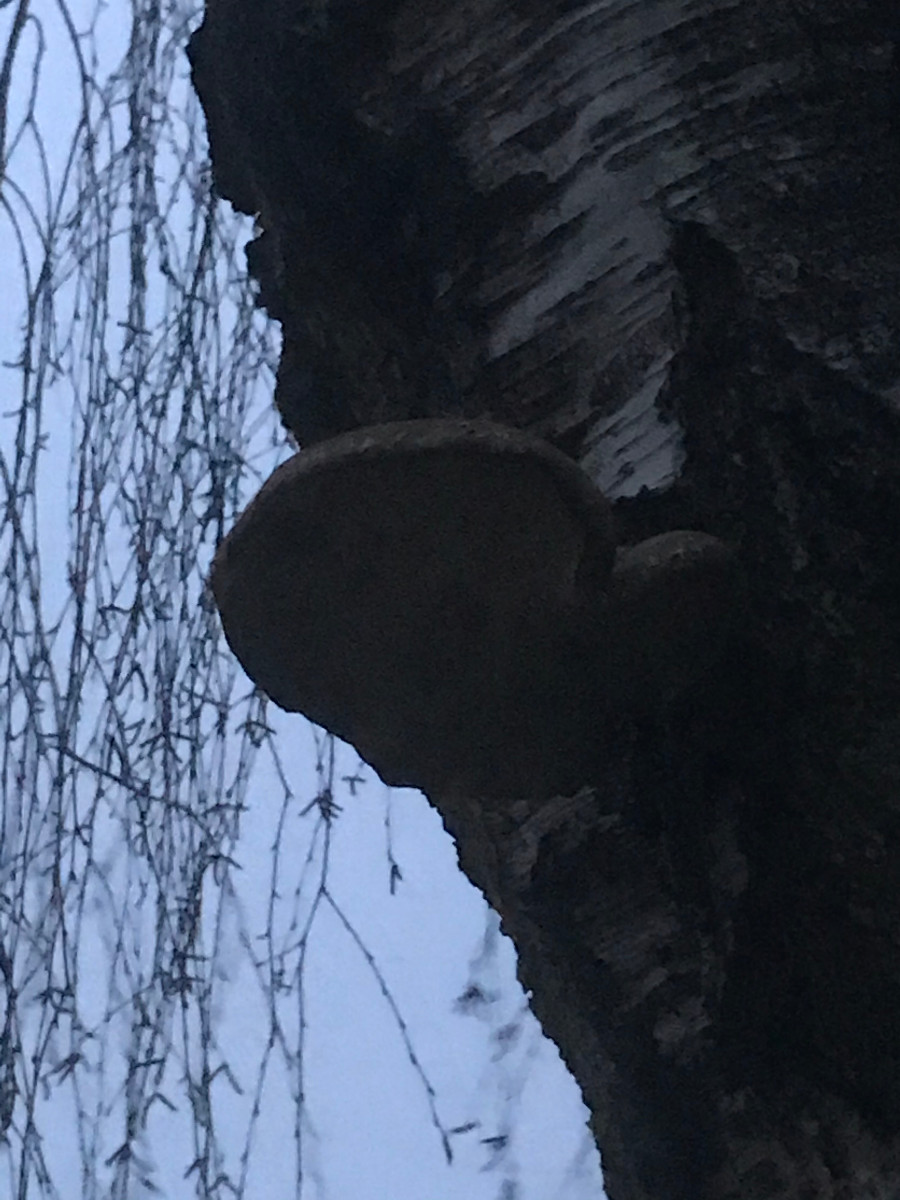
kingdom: Fungi
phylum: Basidiomycota
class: Agaricomycetes
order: Polyporales
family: Fomitopsidaceae
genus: Fomitopsis
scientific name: Fomitopsis betulina
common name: birkeporesvamp
